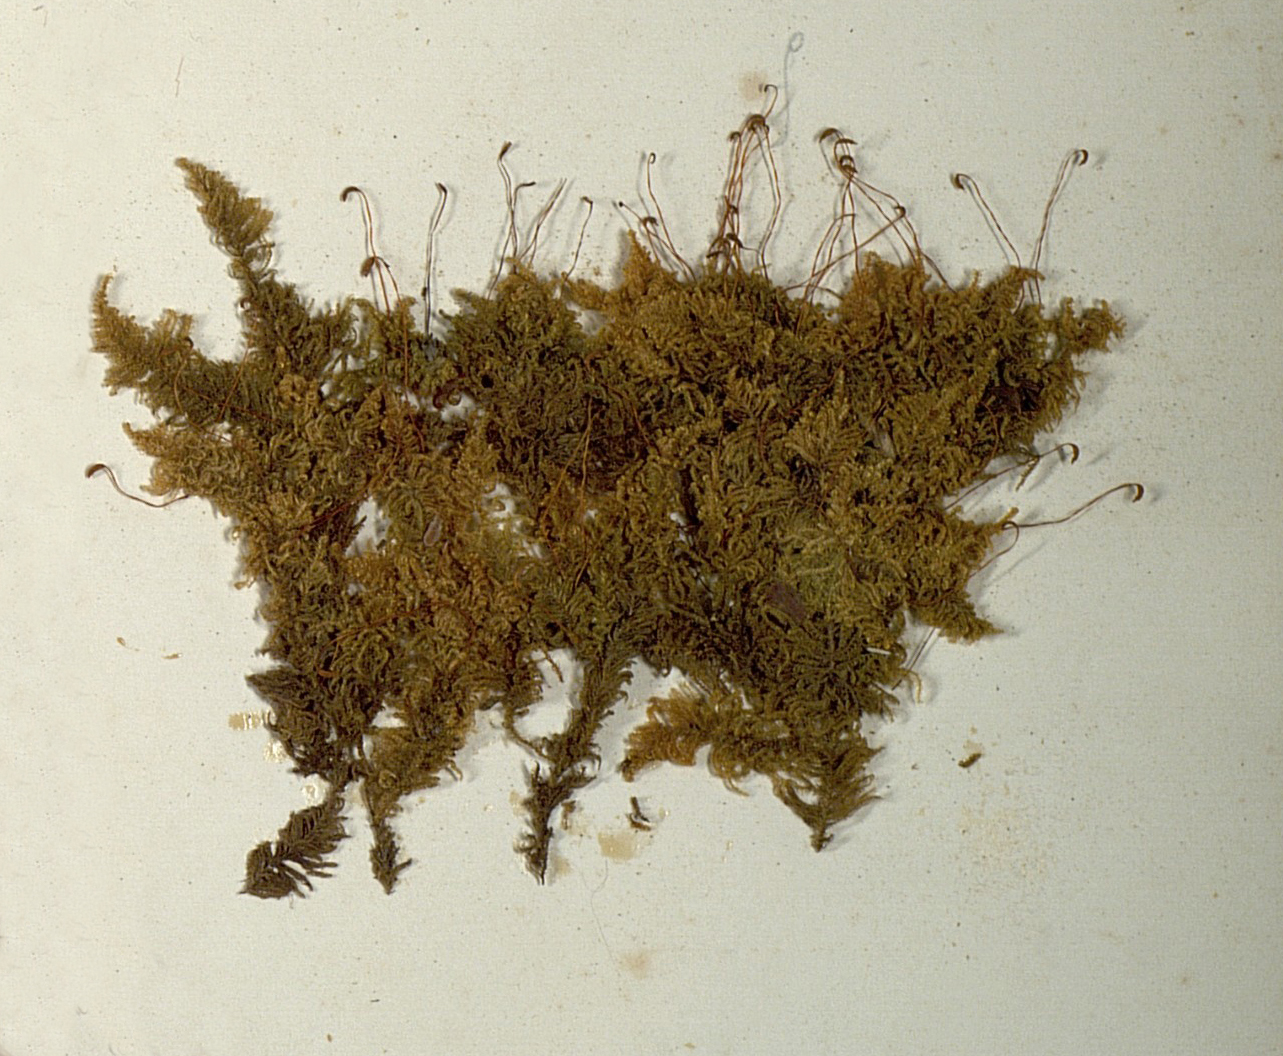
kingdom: Plantae
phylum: Bryophyta
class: Bryopsida
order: Hypnales
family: Pylaisiaceae
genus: Ptilium
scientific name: Ptilium crista-castrensis
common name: Knight's plume moss
